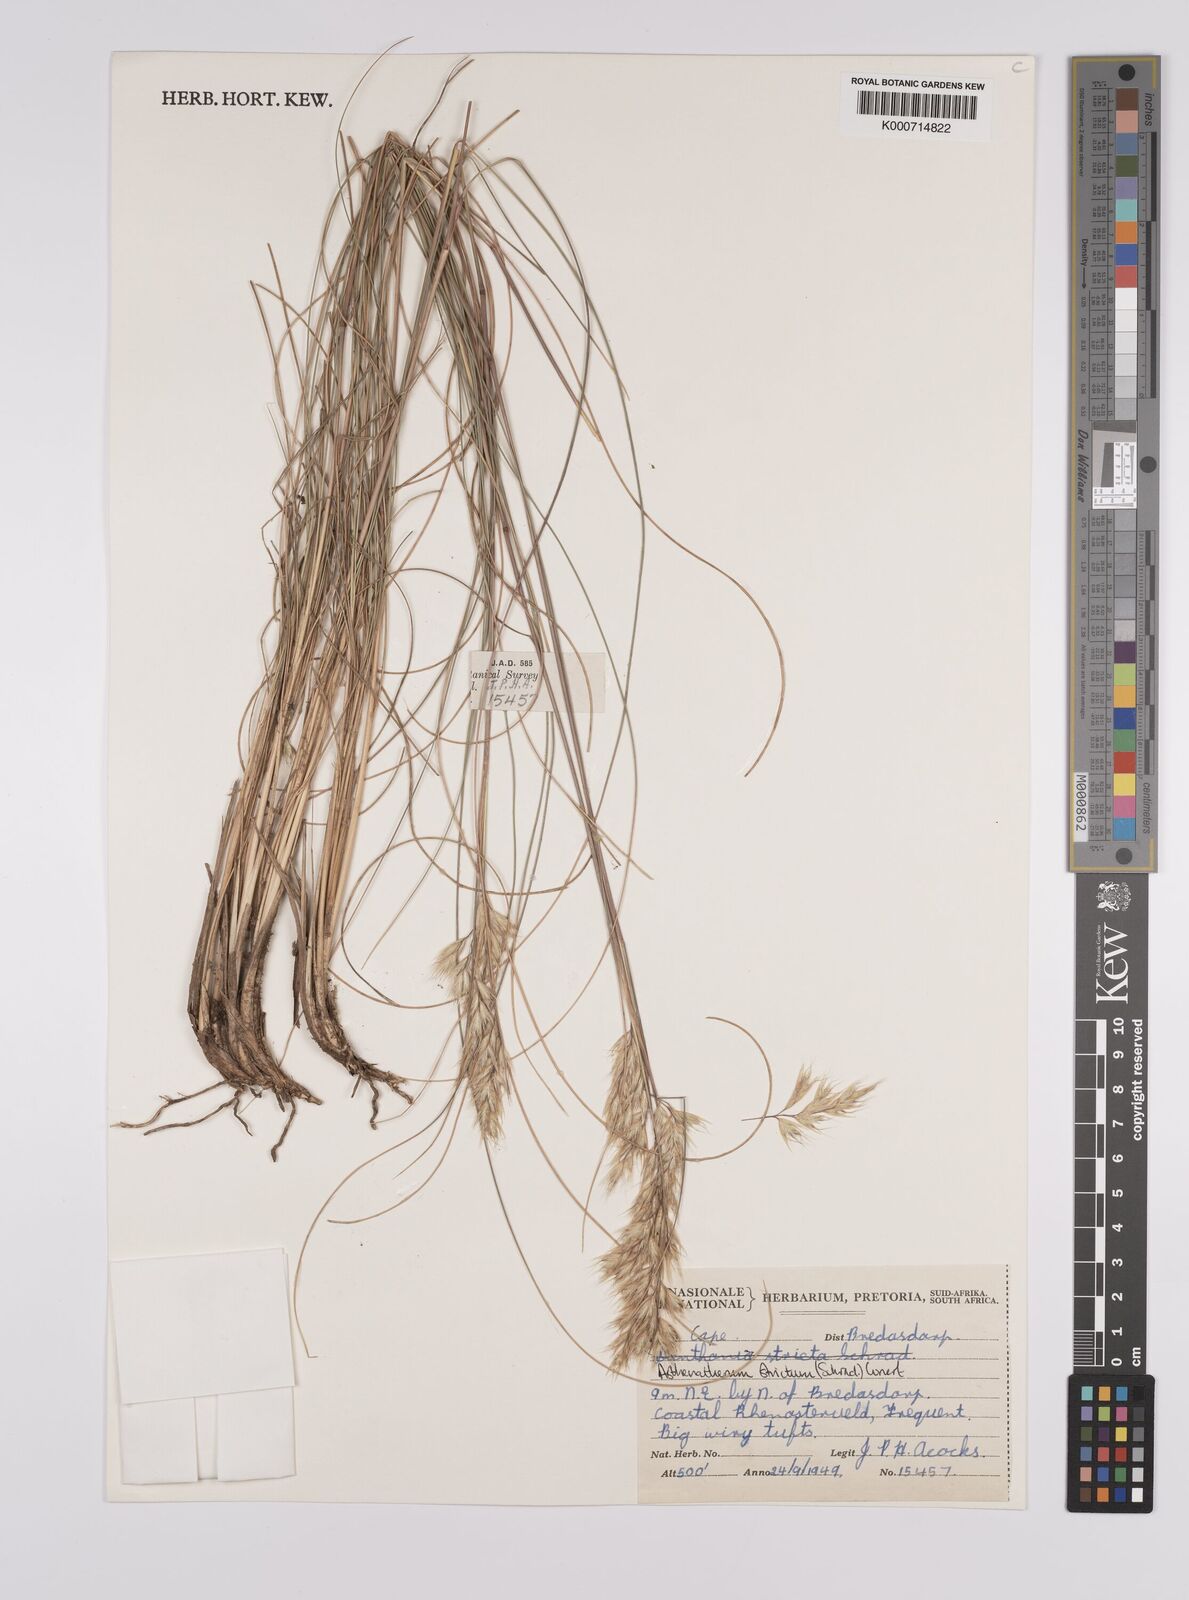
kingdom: Plantae
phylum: Tracheophyta
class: Liliopsida
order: Poales
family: Poaceae
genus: Rytidosperma
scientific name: Rytidosperma
